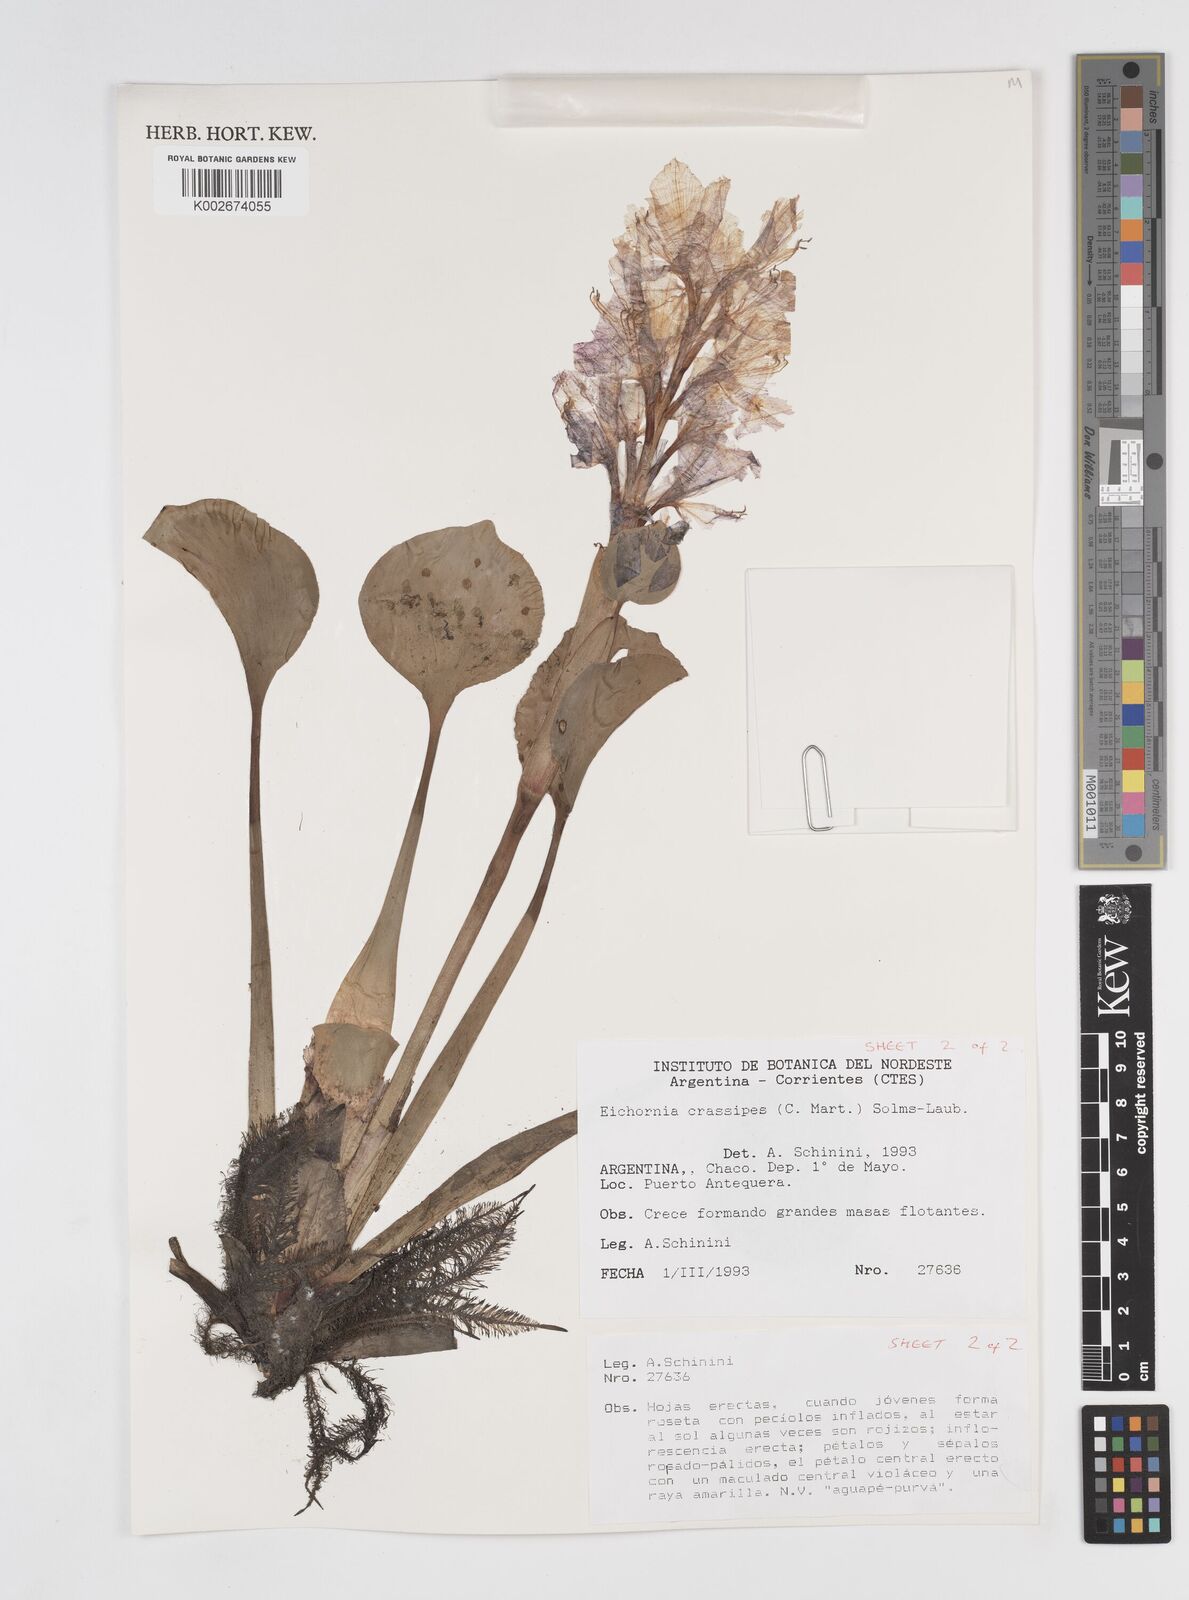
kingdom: Plantae
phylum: Tracheophyta
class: Liliopsida
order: Commelinales
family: Pontederiaceae
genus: Pontederia
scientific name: Pontederia crassipes
